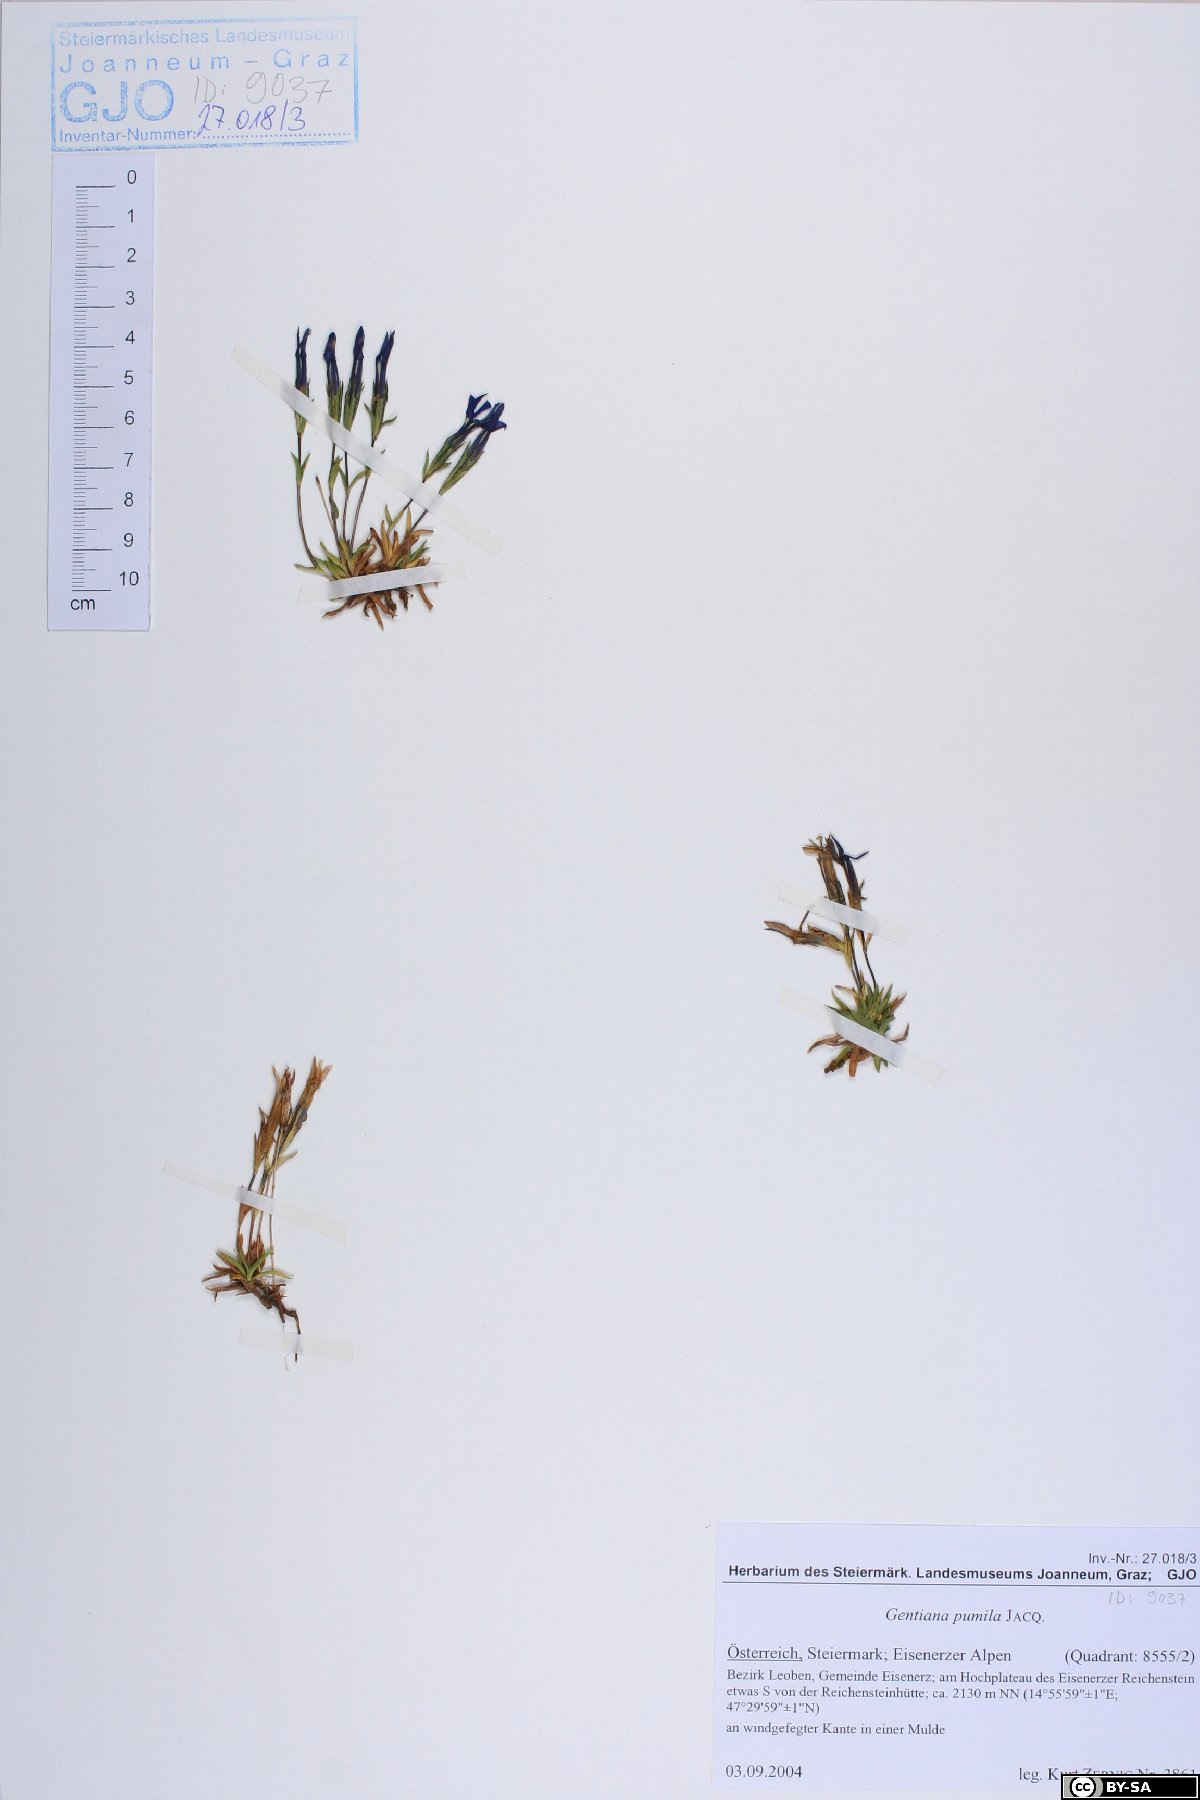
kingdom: Plantae
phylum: Tracheophyta
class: Magnoliopsida
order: Gentianales
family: Gentianaceae
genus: Gentiana
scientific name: Gentiana pumila
